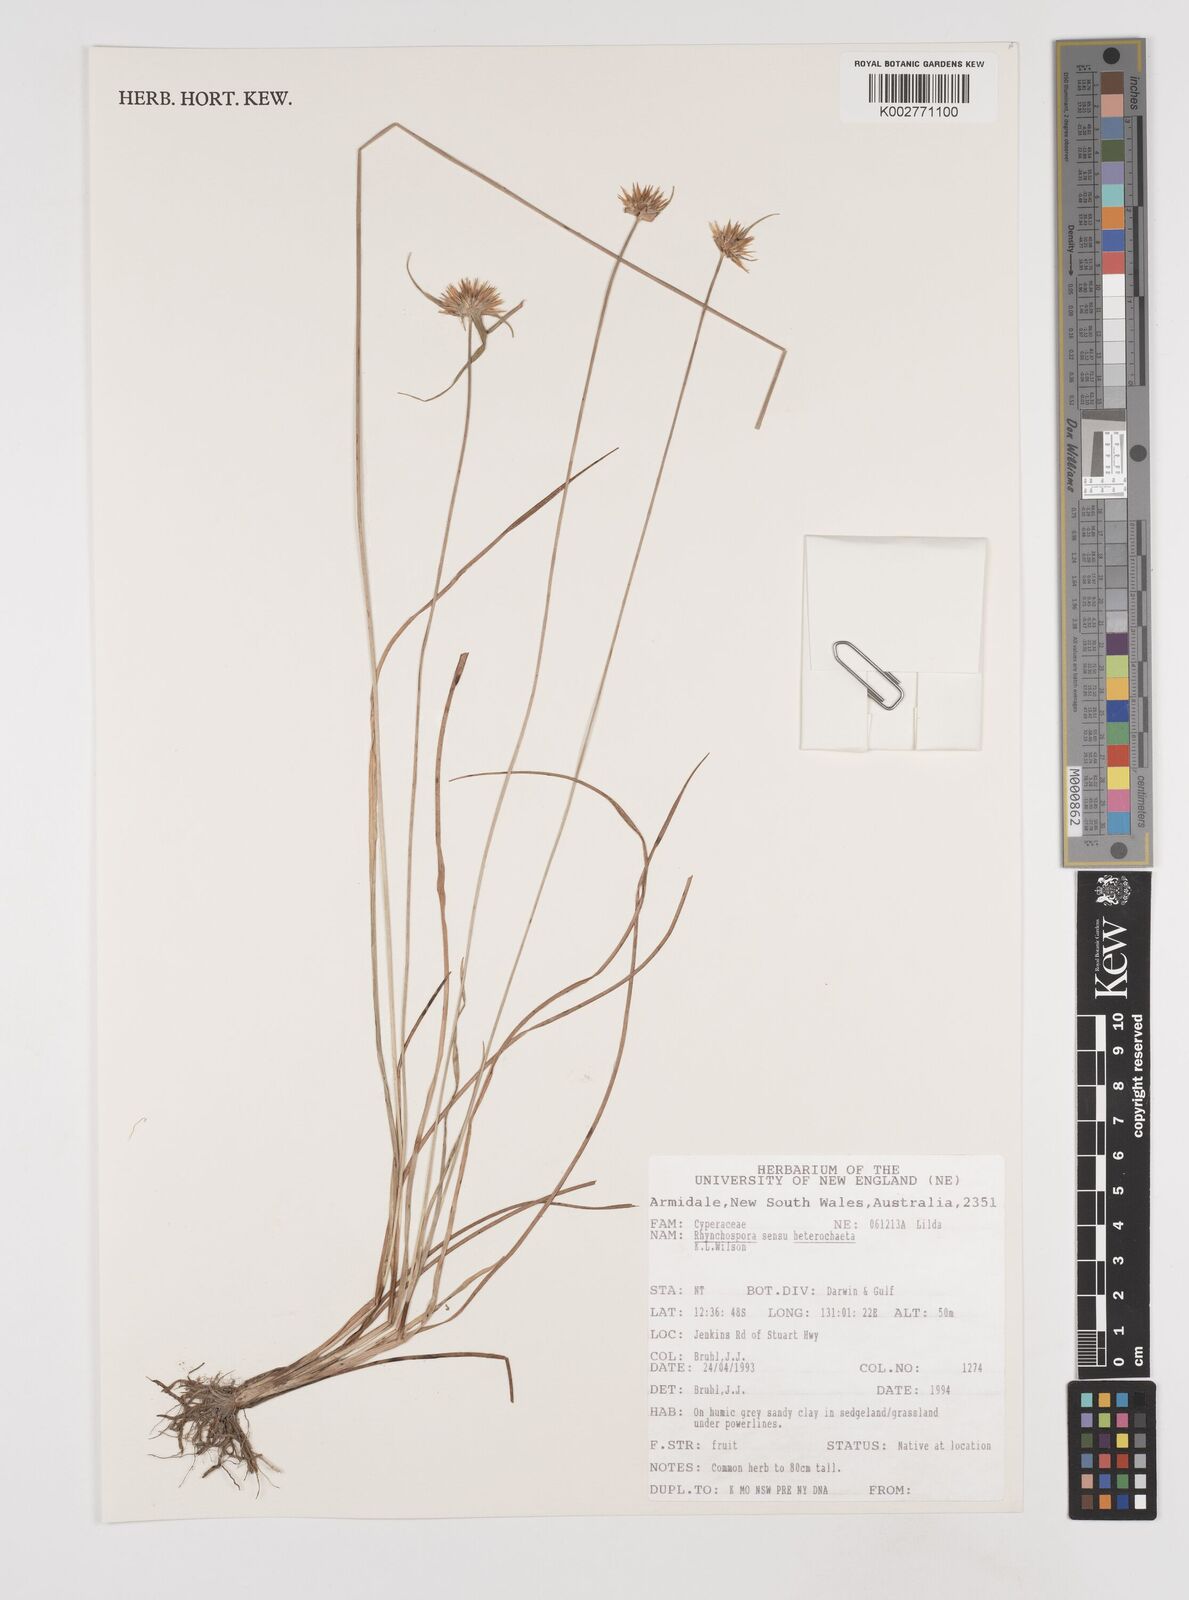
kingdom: Plantae
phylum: Tracheophyta
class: Liliopsida
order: Poales
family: Cyperaceae
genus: Rhynchospora
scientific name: Rhynchospora heterochaeta
